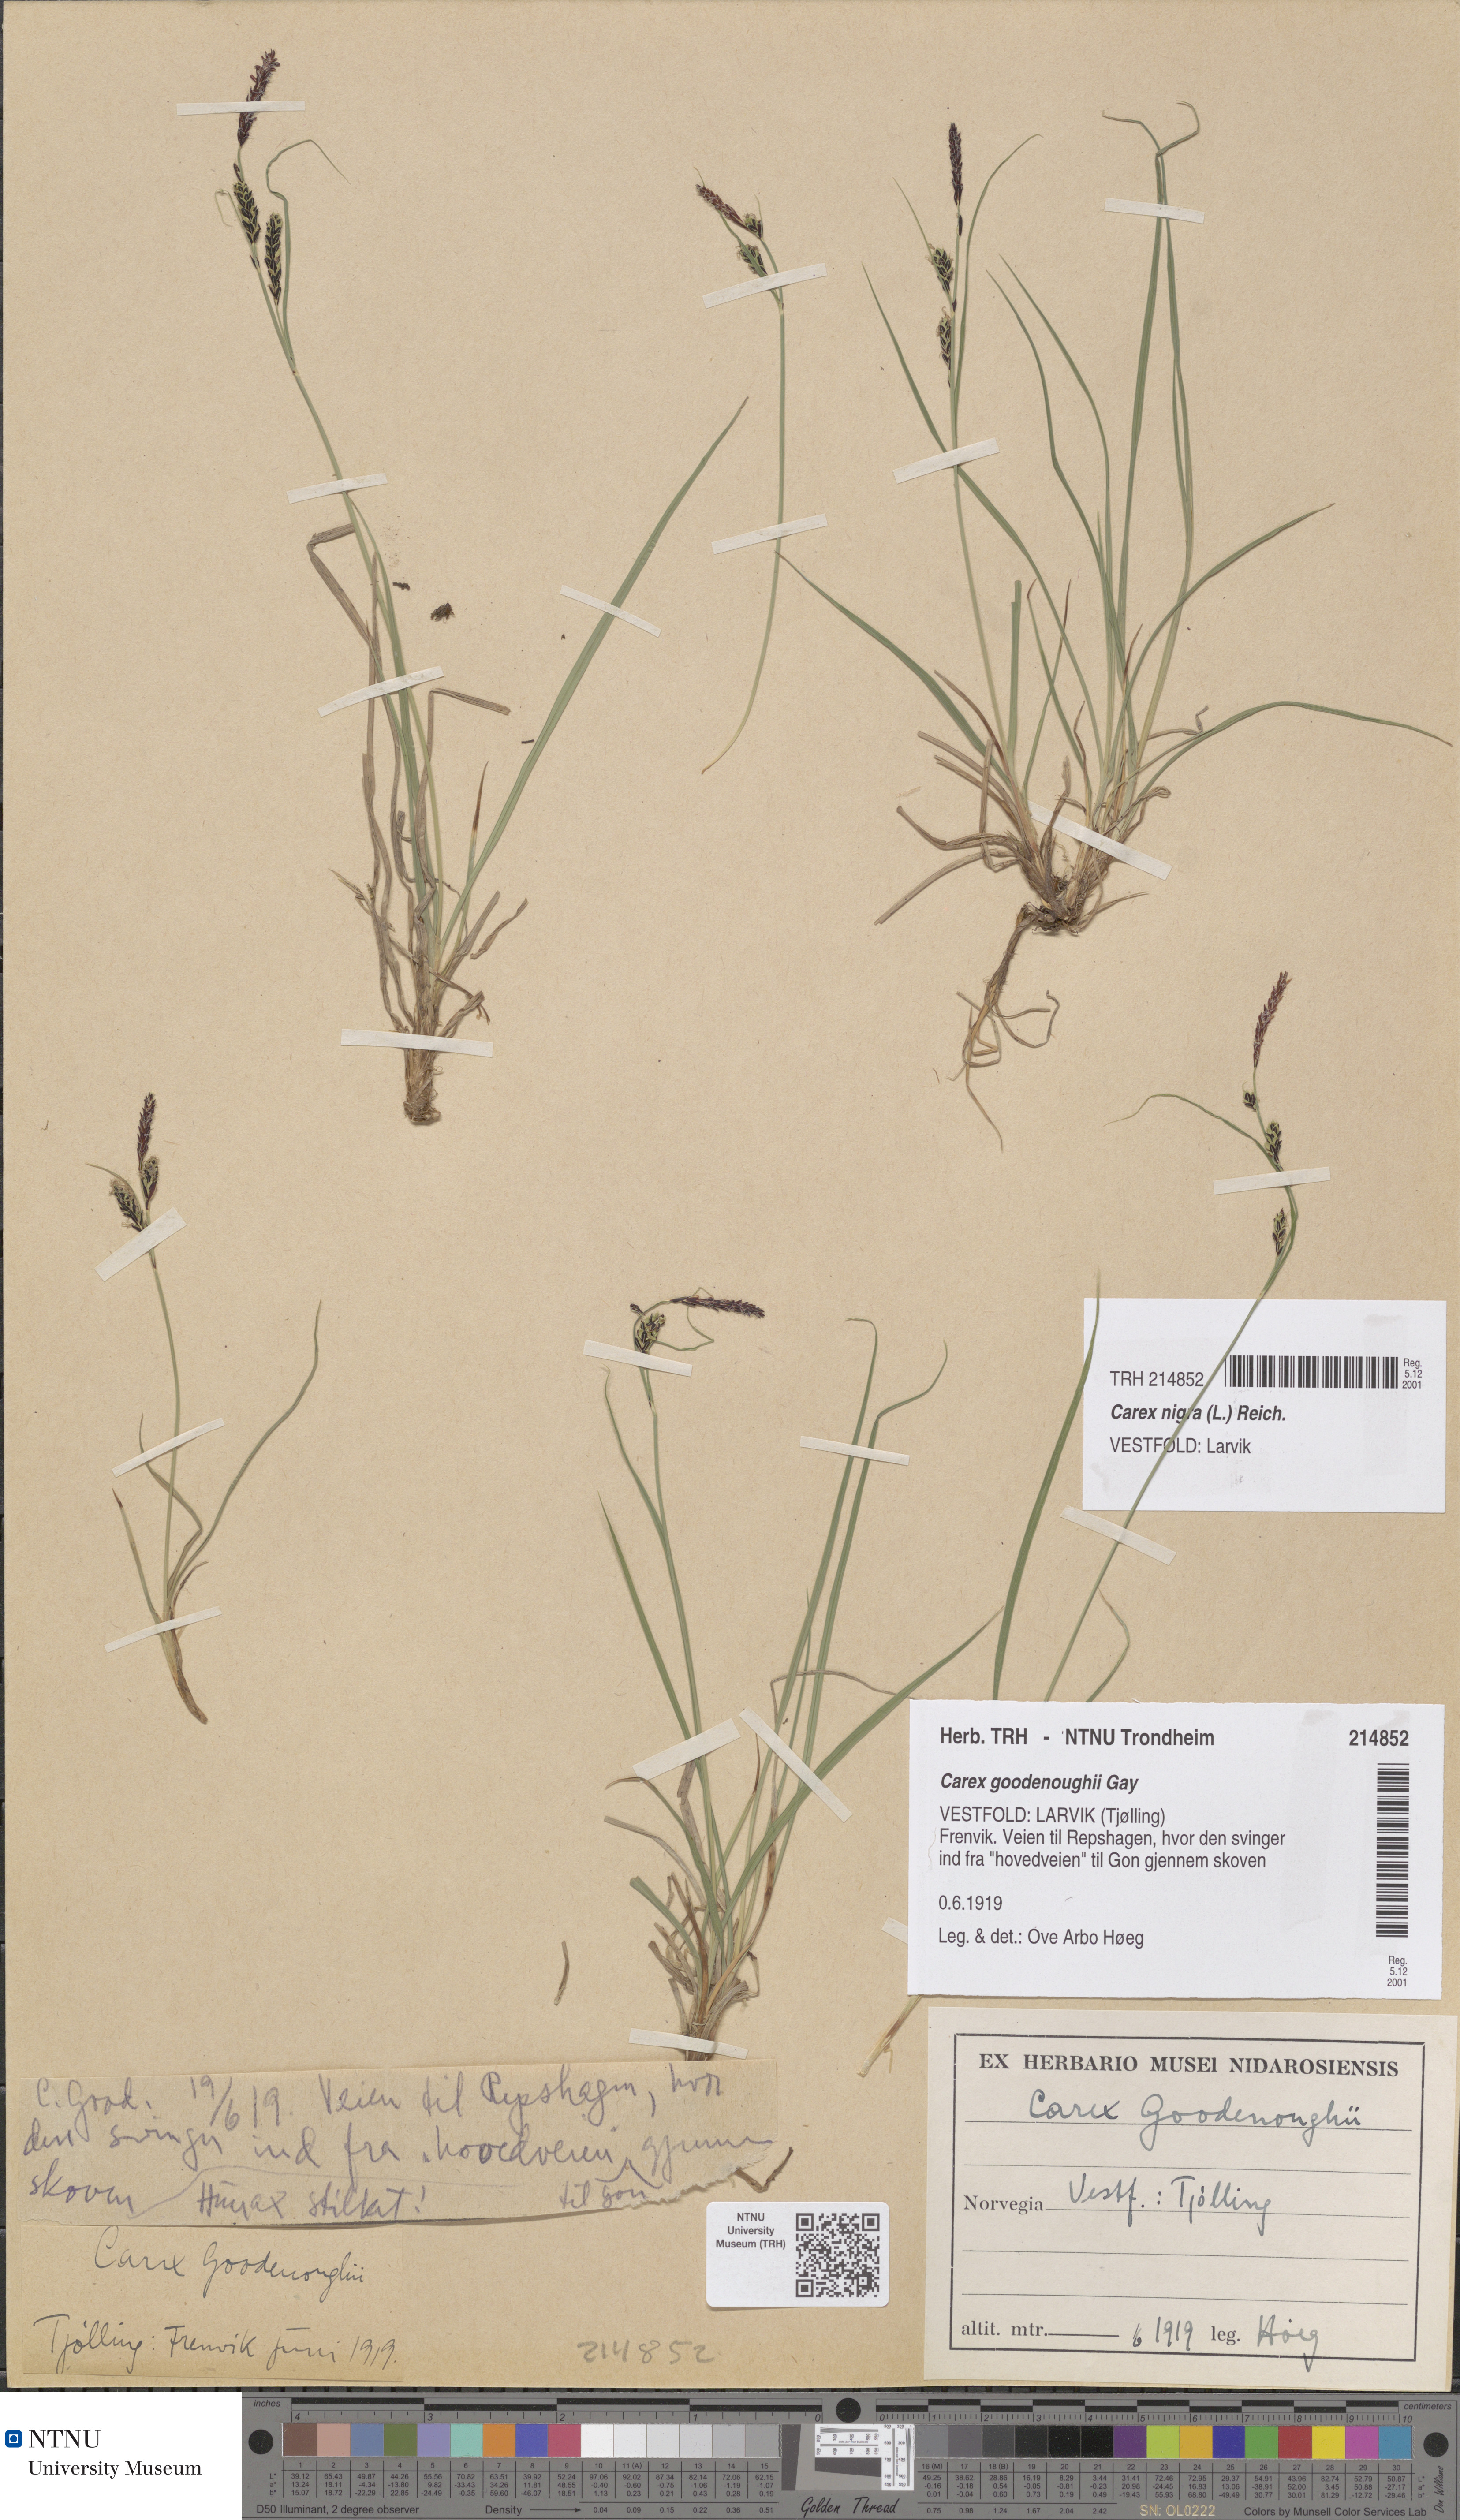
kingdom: Plantae
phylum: Tracheophyta
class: Liliopsida
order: Poales
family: Cyperaceae
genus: Carex
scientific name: Carex nigra
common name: Common sedge
